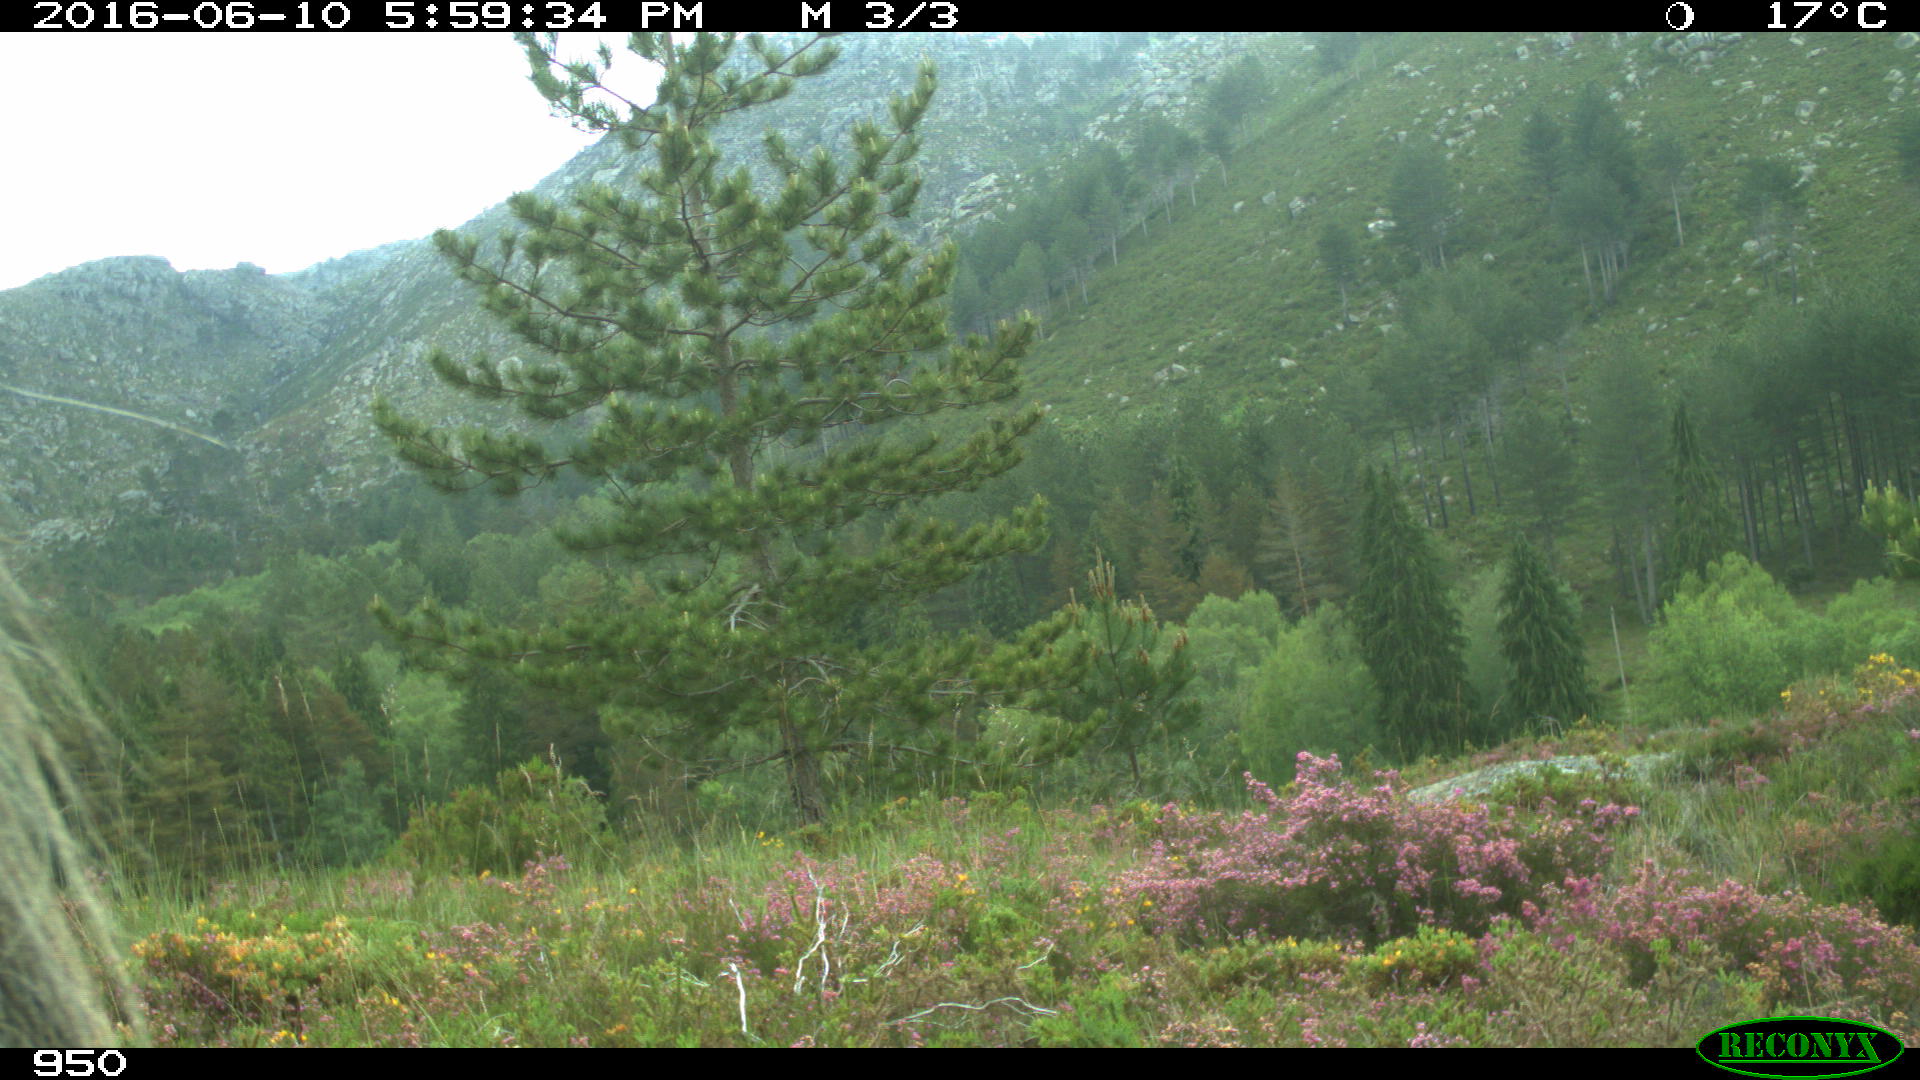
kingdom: Animalia
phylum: Chordata
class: Mammalia
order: Perissodactyla
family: Equidae
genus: Equus
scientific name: Equus caballus
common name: Horse
